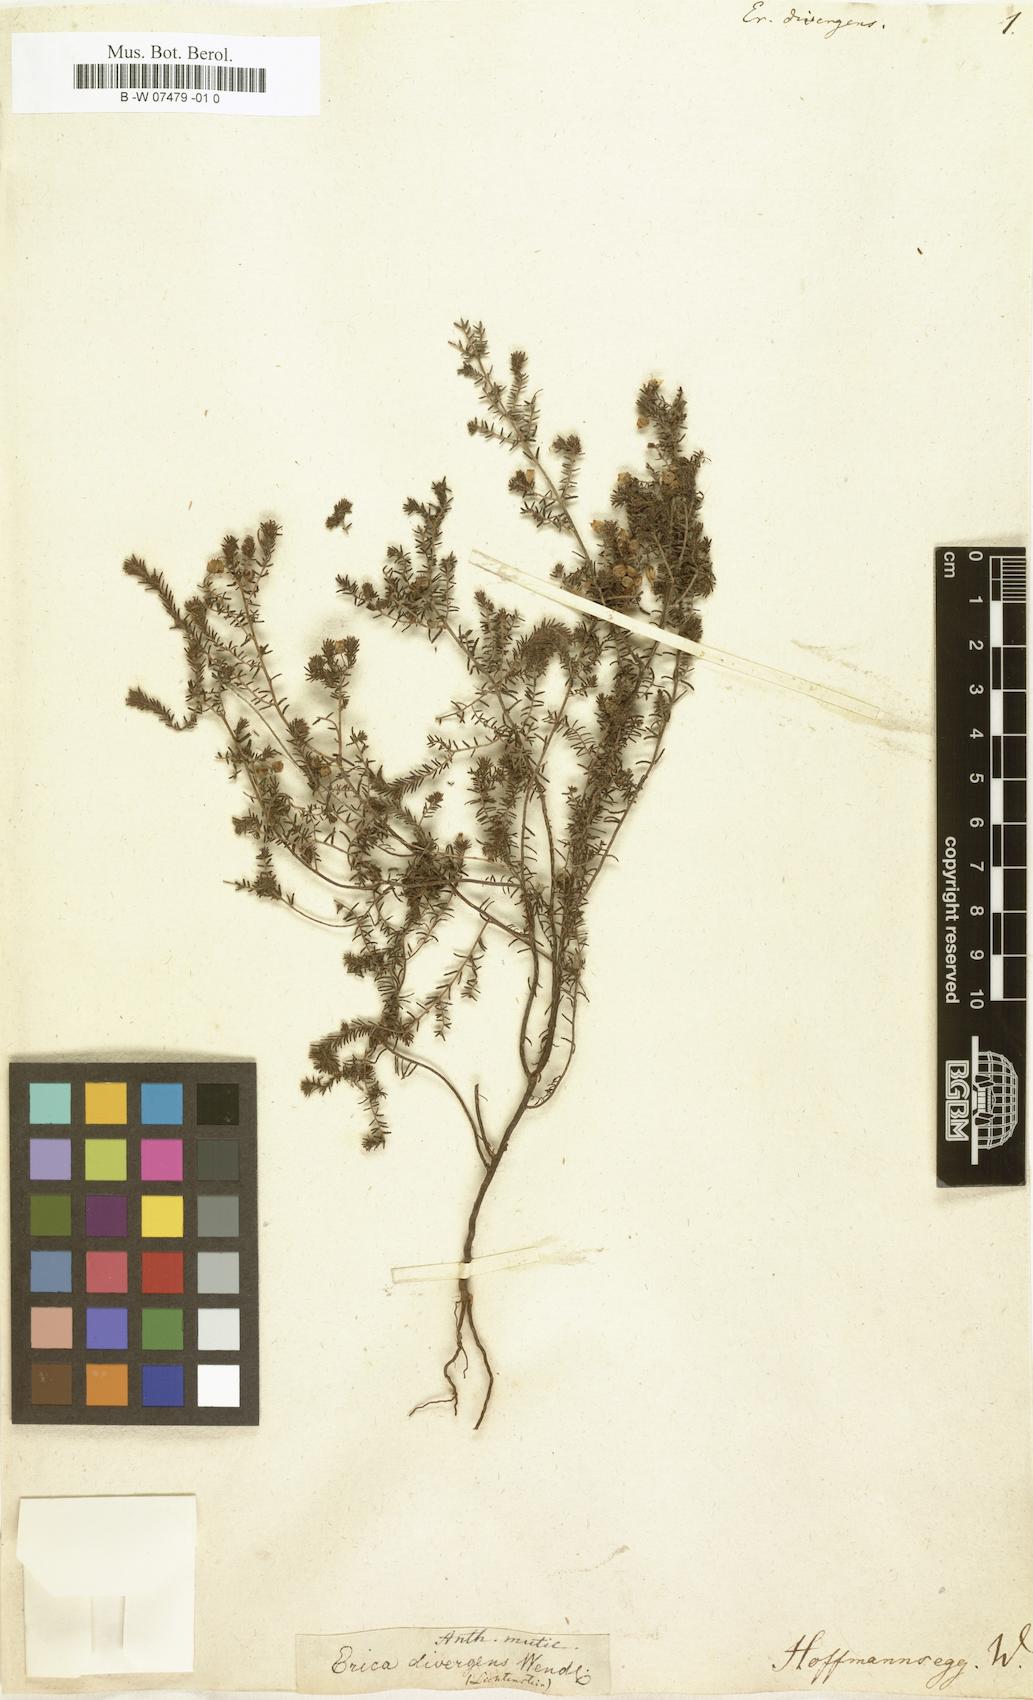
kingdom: Plantae
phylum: Tracheophyta
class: Magnoliopsida
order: Ericales
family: Ericaceae
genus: Erica
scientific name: Erica filiformis
